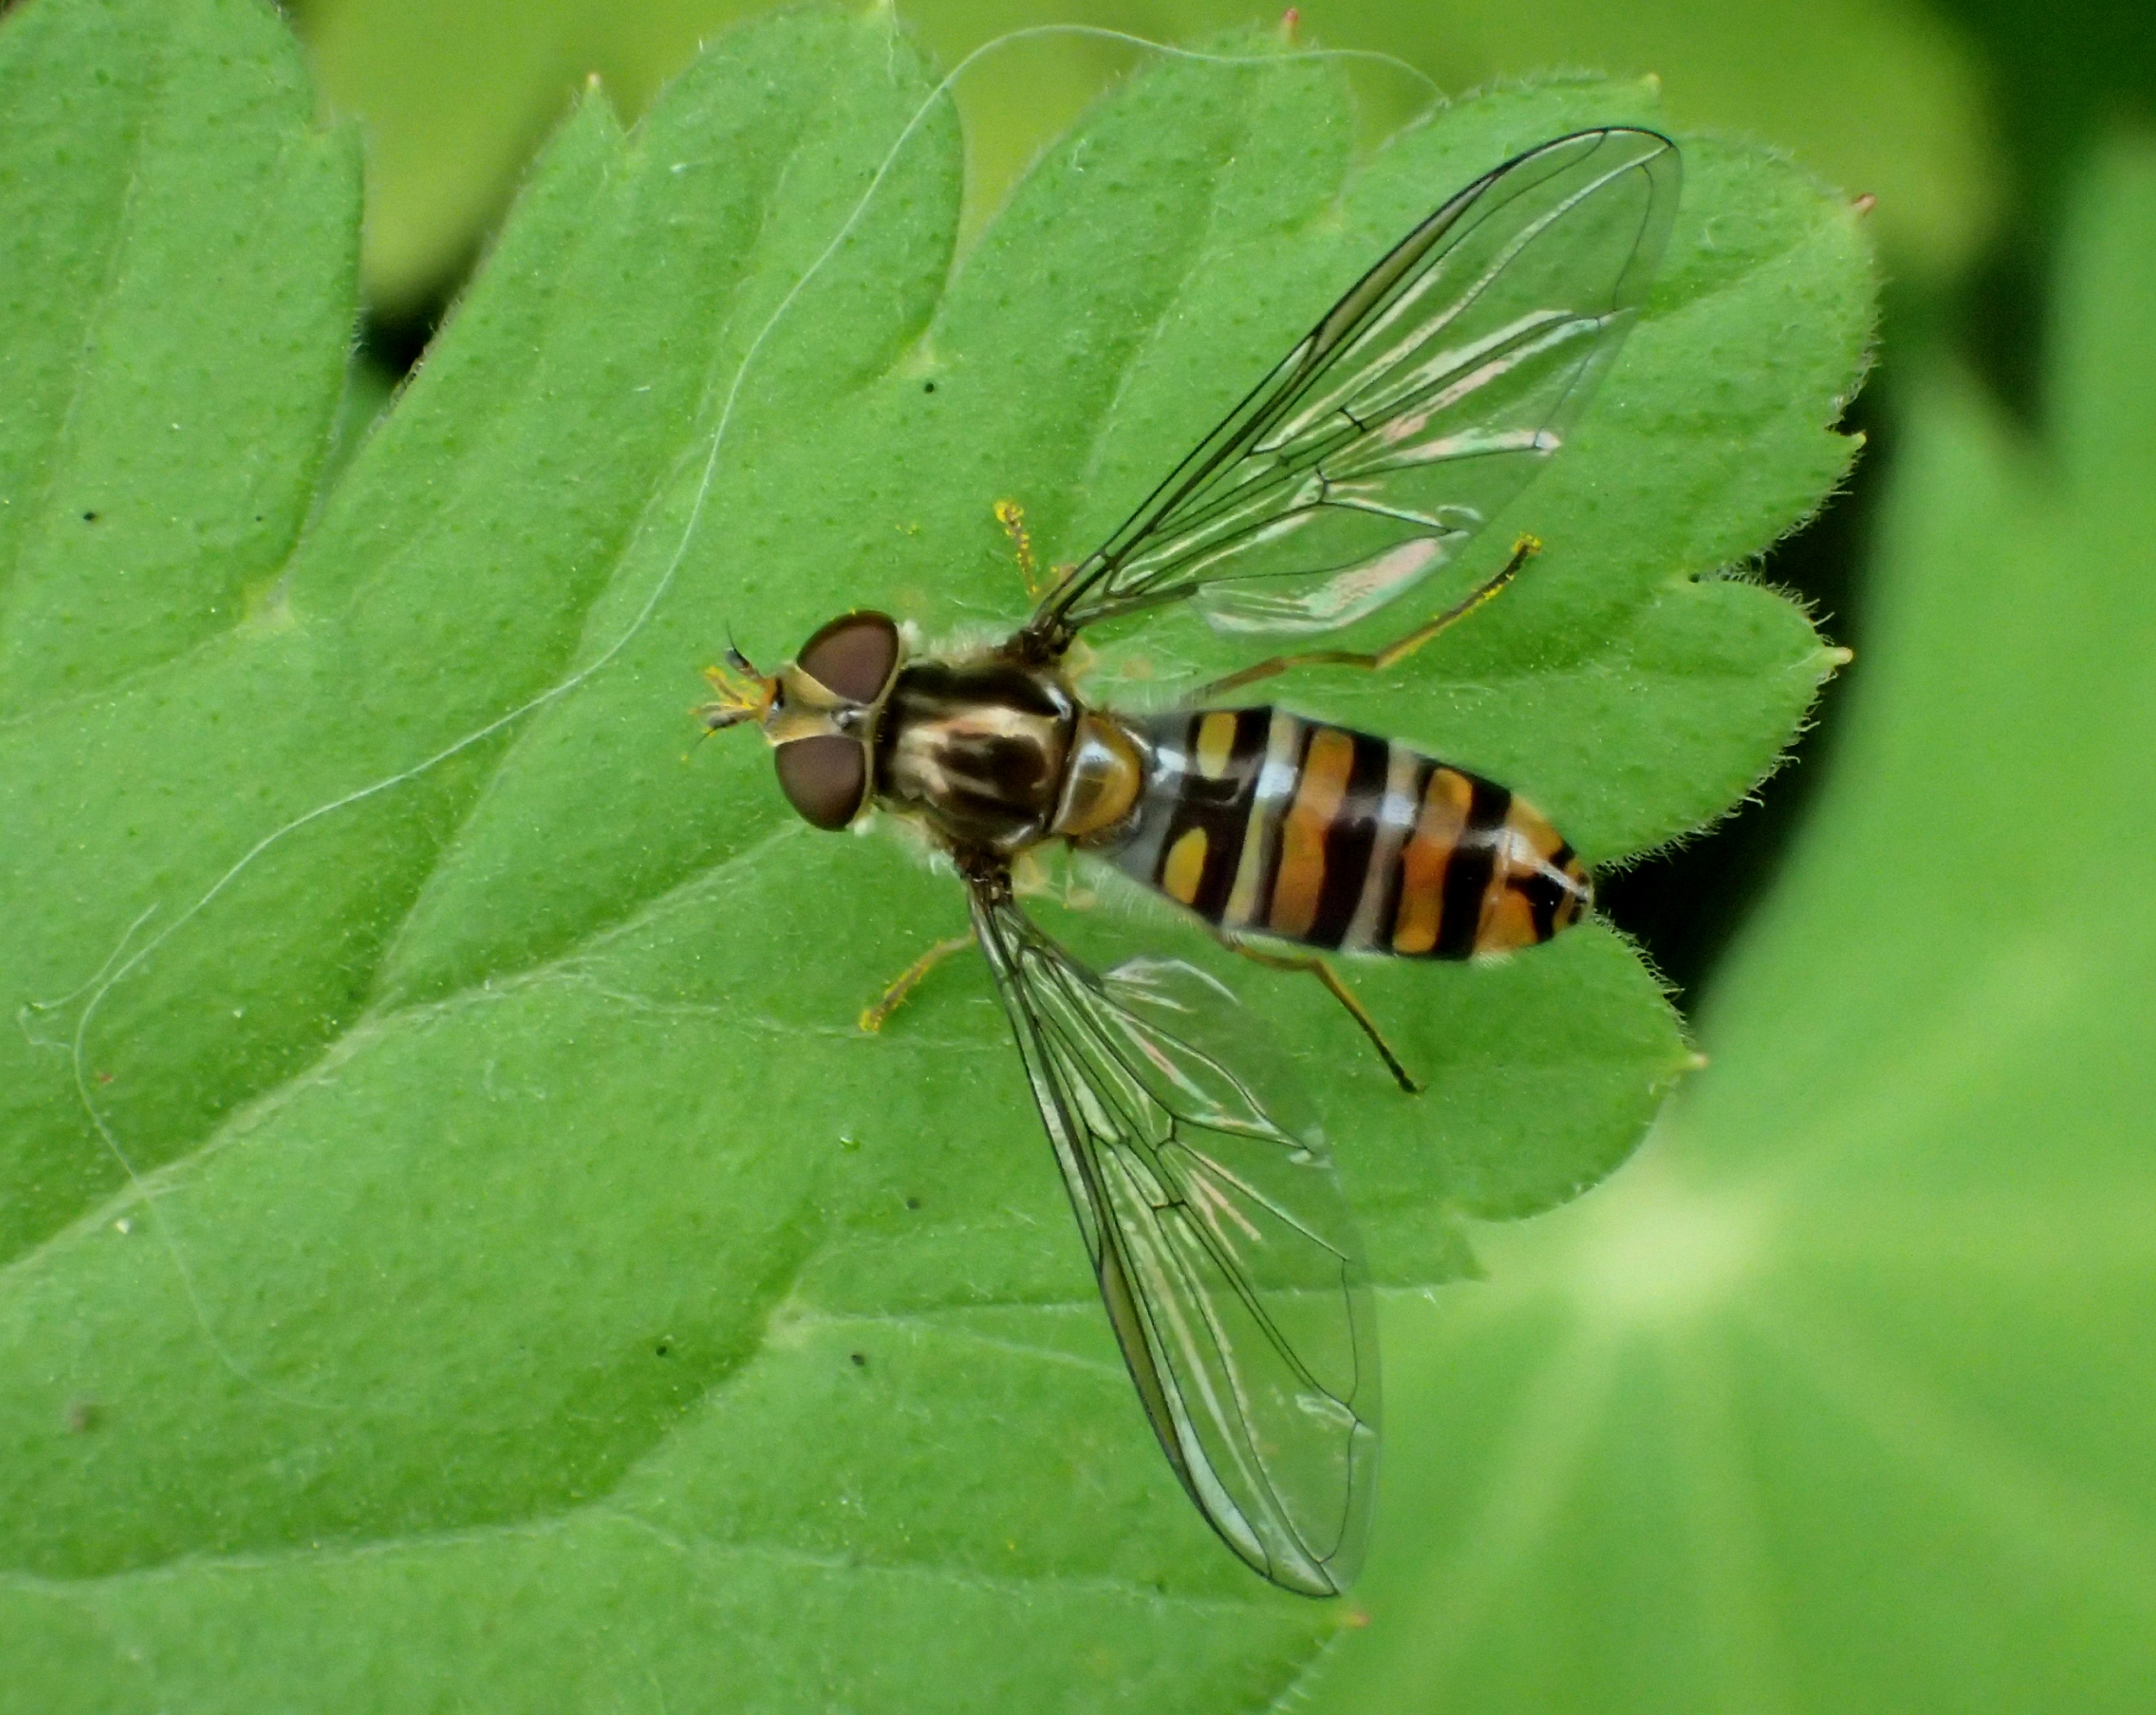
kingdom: Animalia
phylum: Arthropoda
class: Insecta
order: Diptera
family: Syrphidae
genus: Episyrphus
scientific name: Episyrphus balteatus
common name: Dobbeltbåndet svirreflue
